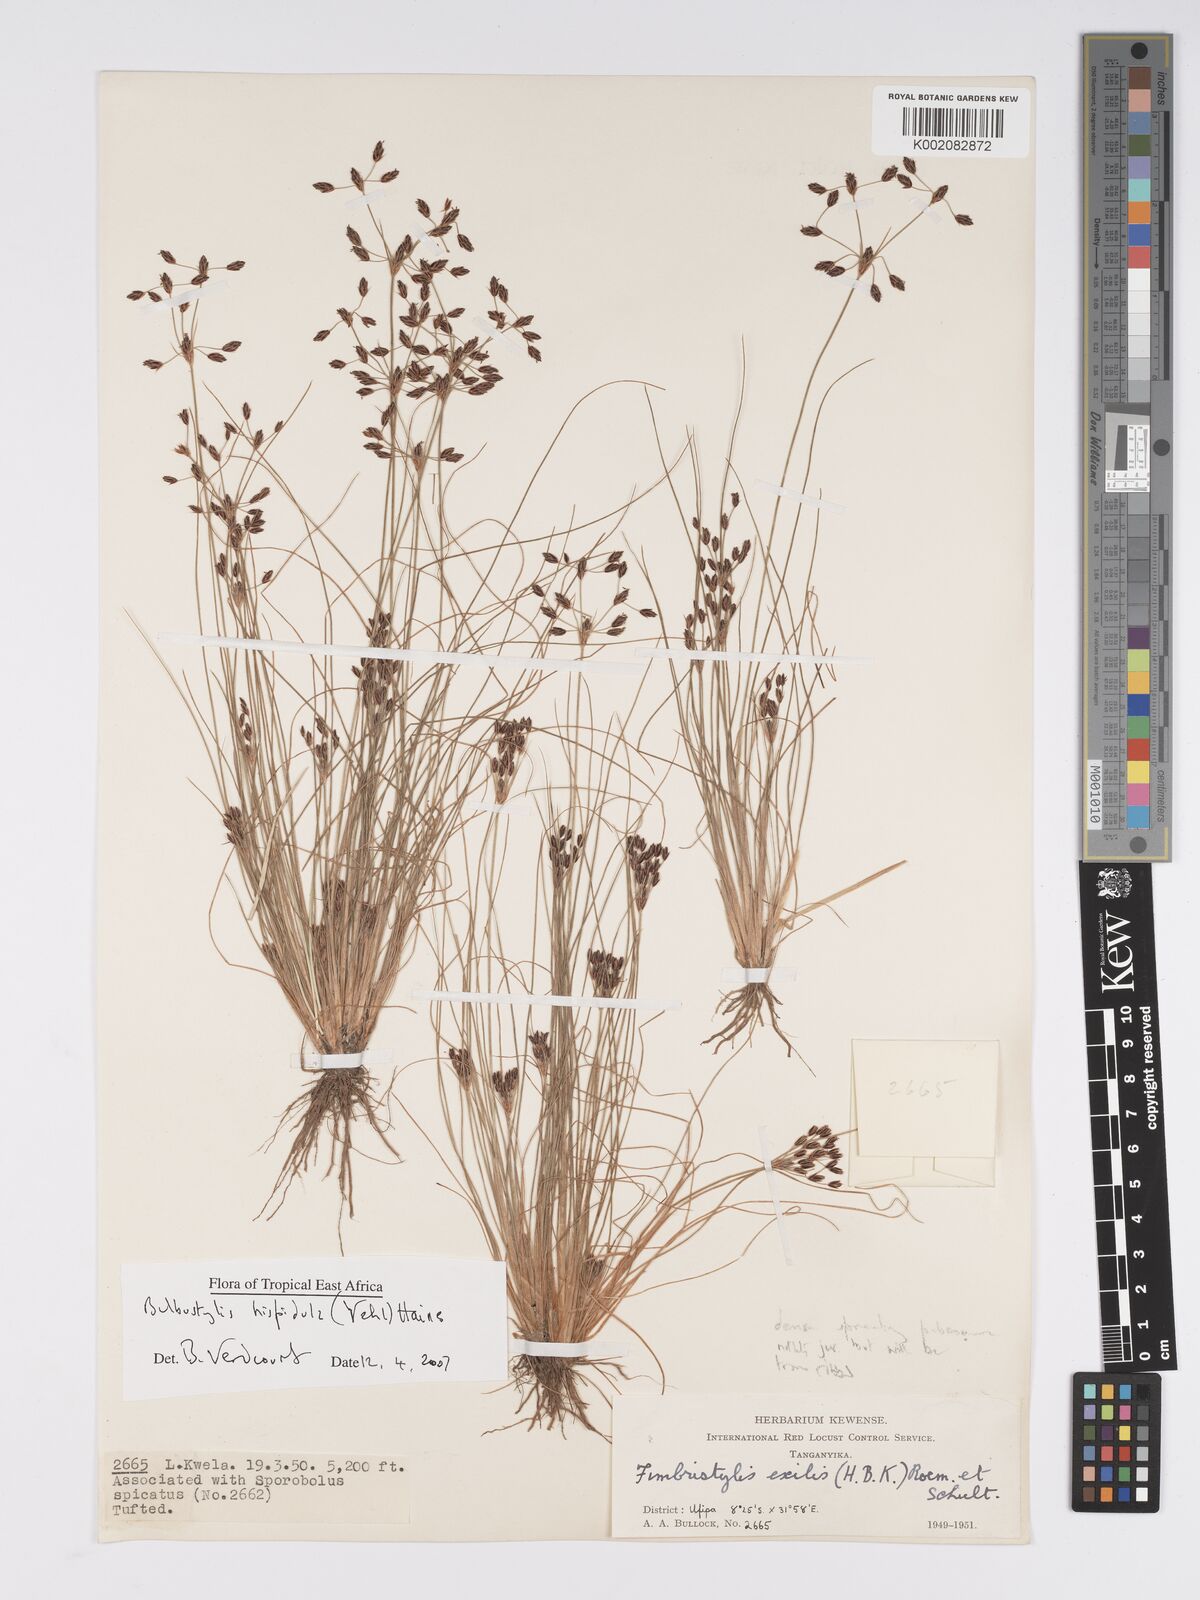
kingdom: Plantae
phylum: Tracheophyta
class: Liliopsida
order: Poales
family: Cyperaceae
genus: Bulbostylis
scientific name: Bulbostylis hispidula
